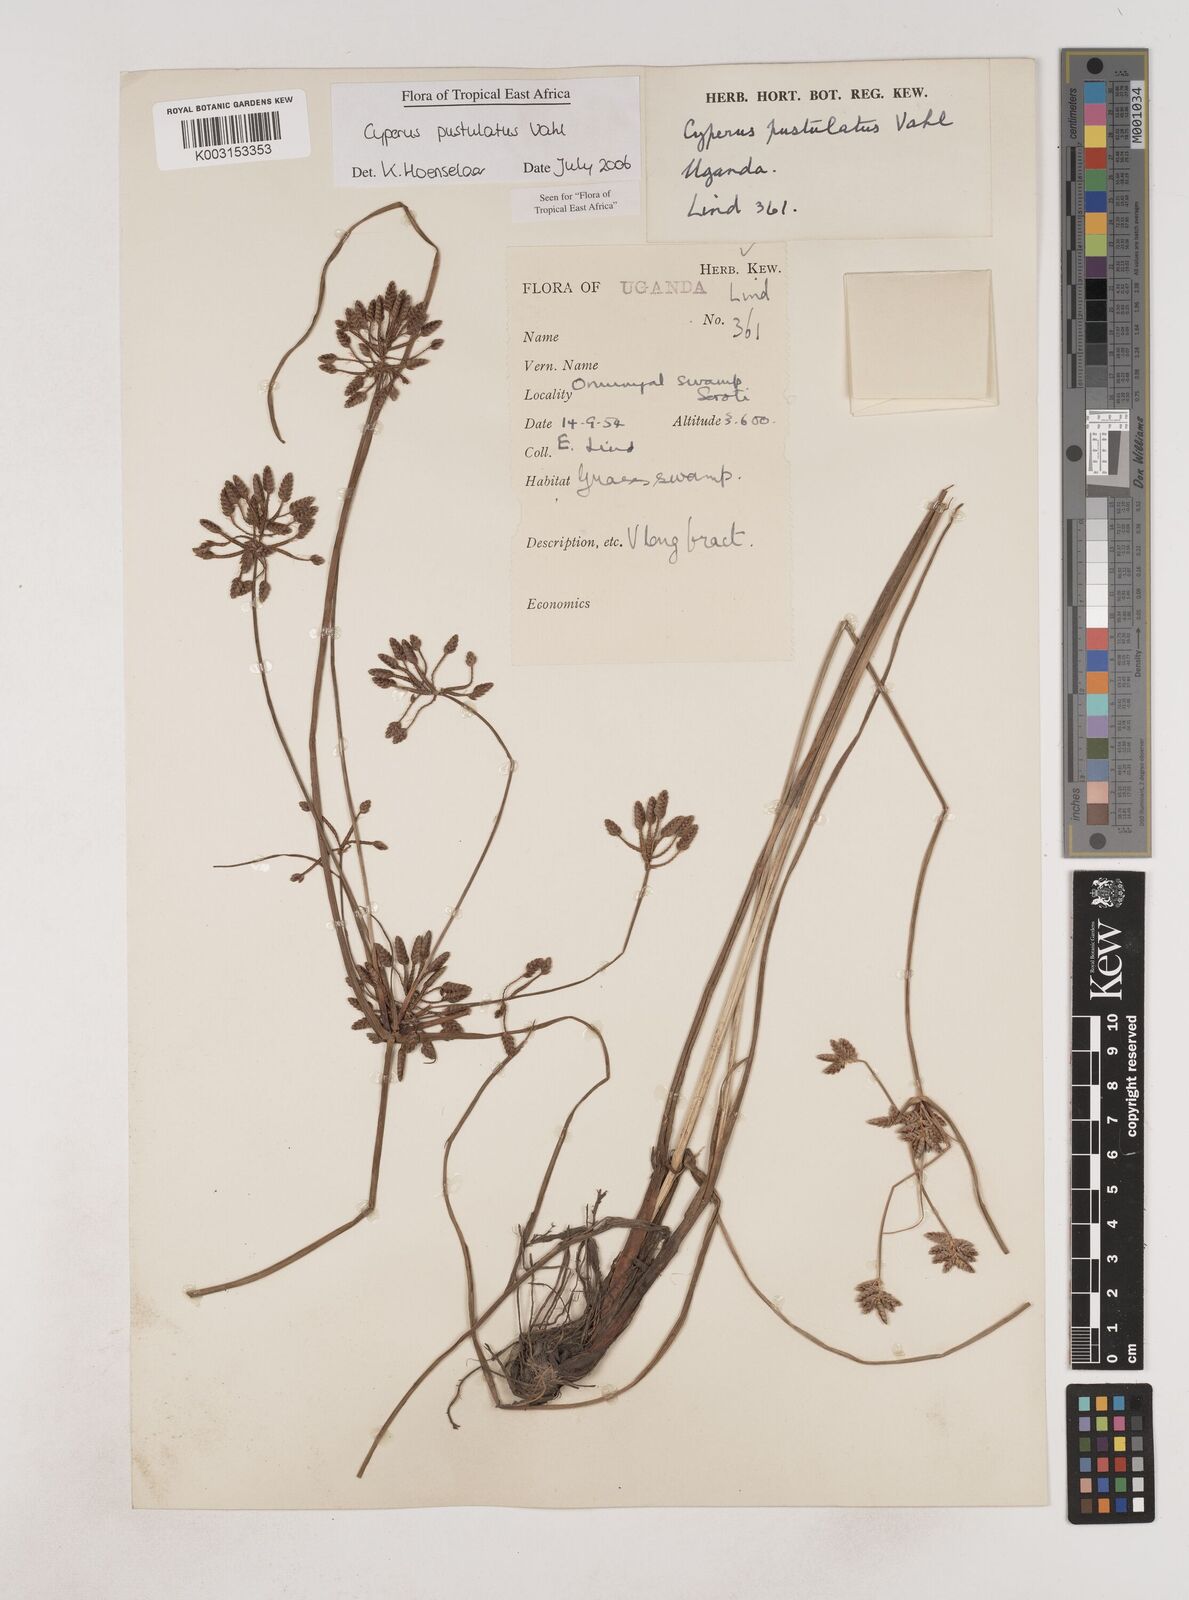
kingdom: Plantae
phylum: Tracheophyta
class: Liliopsida
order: Poales
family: Cyperaceae
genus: Cyperus
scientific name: Cyperus pustulatus
